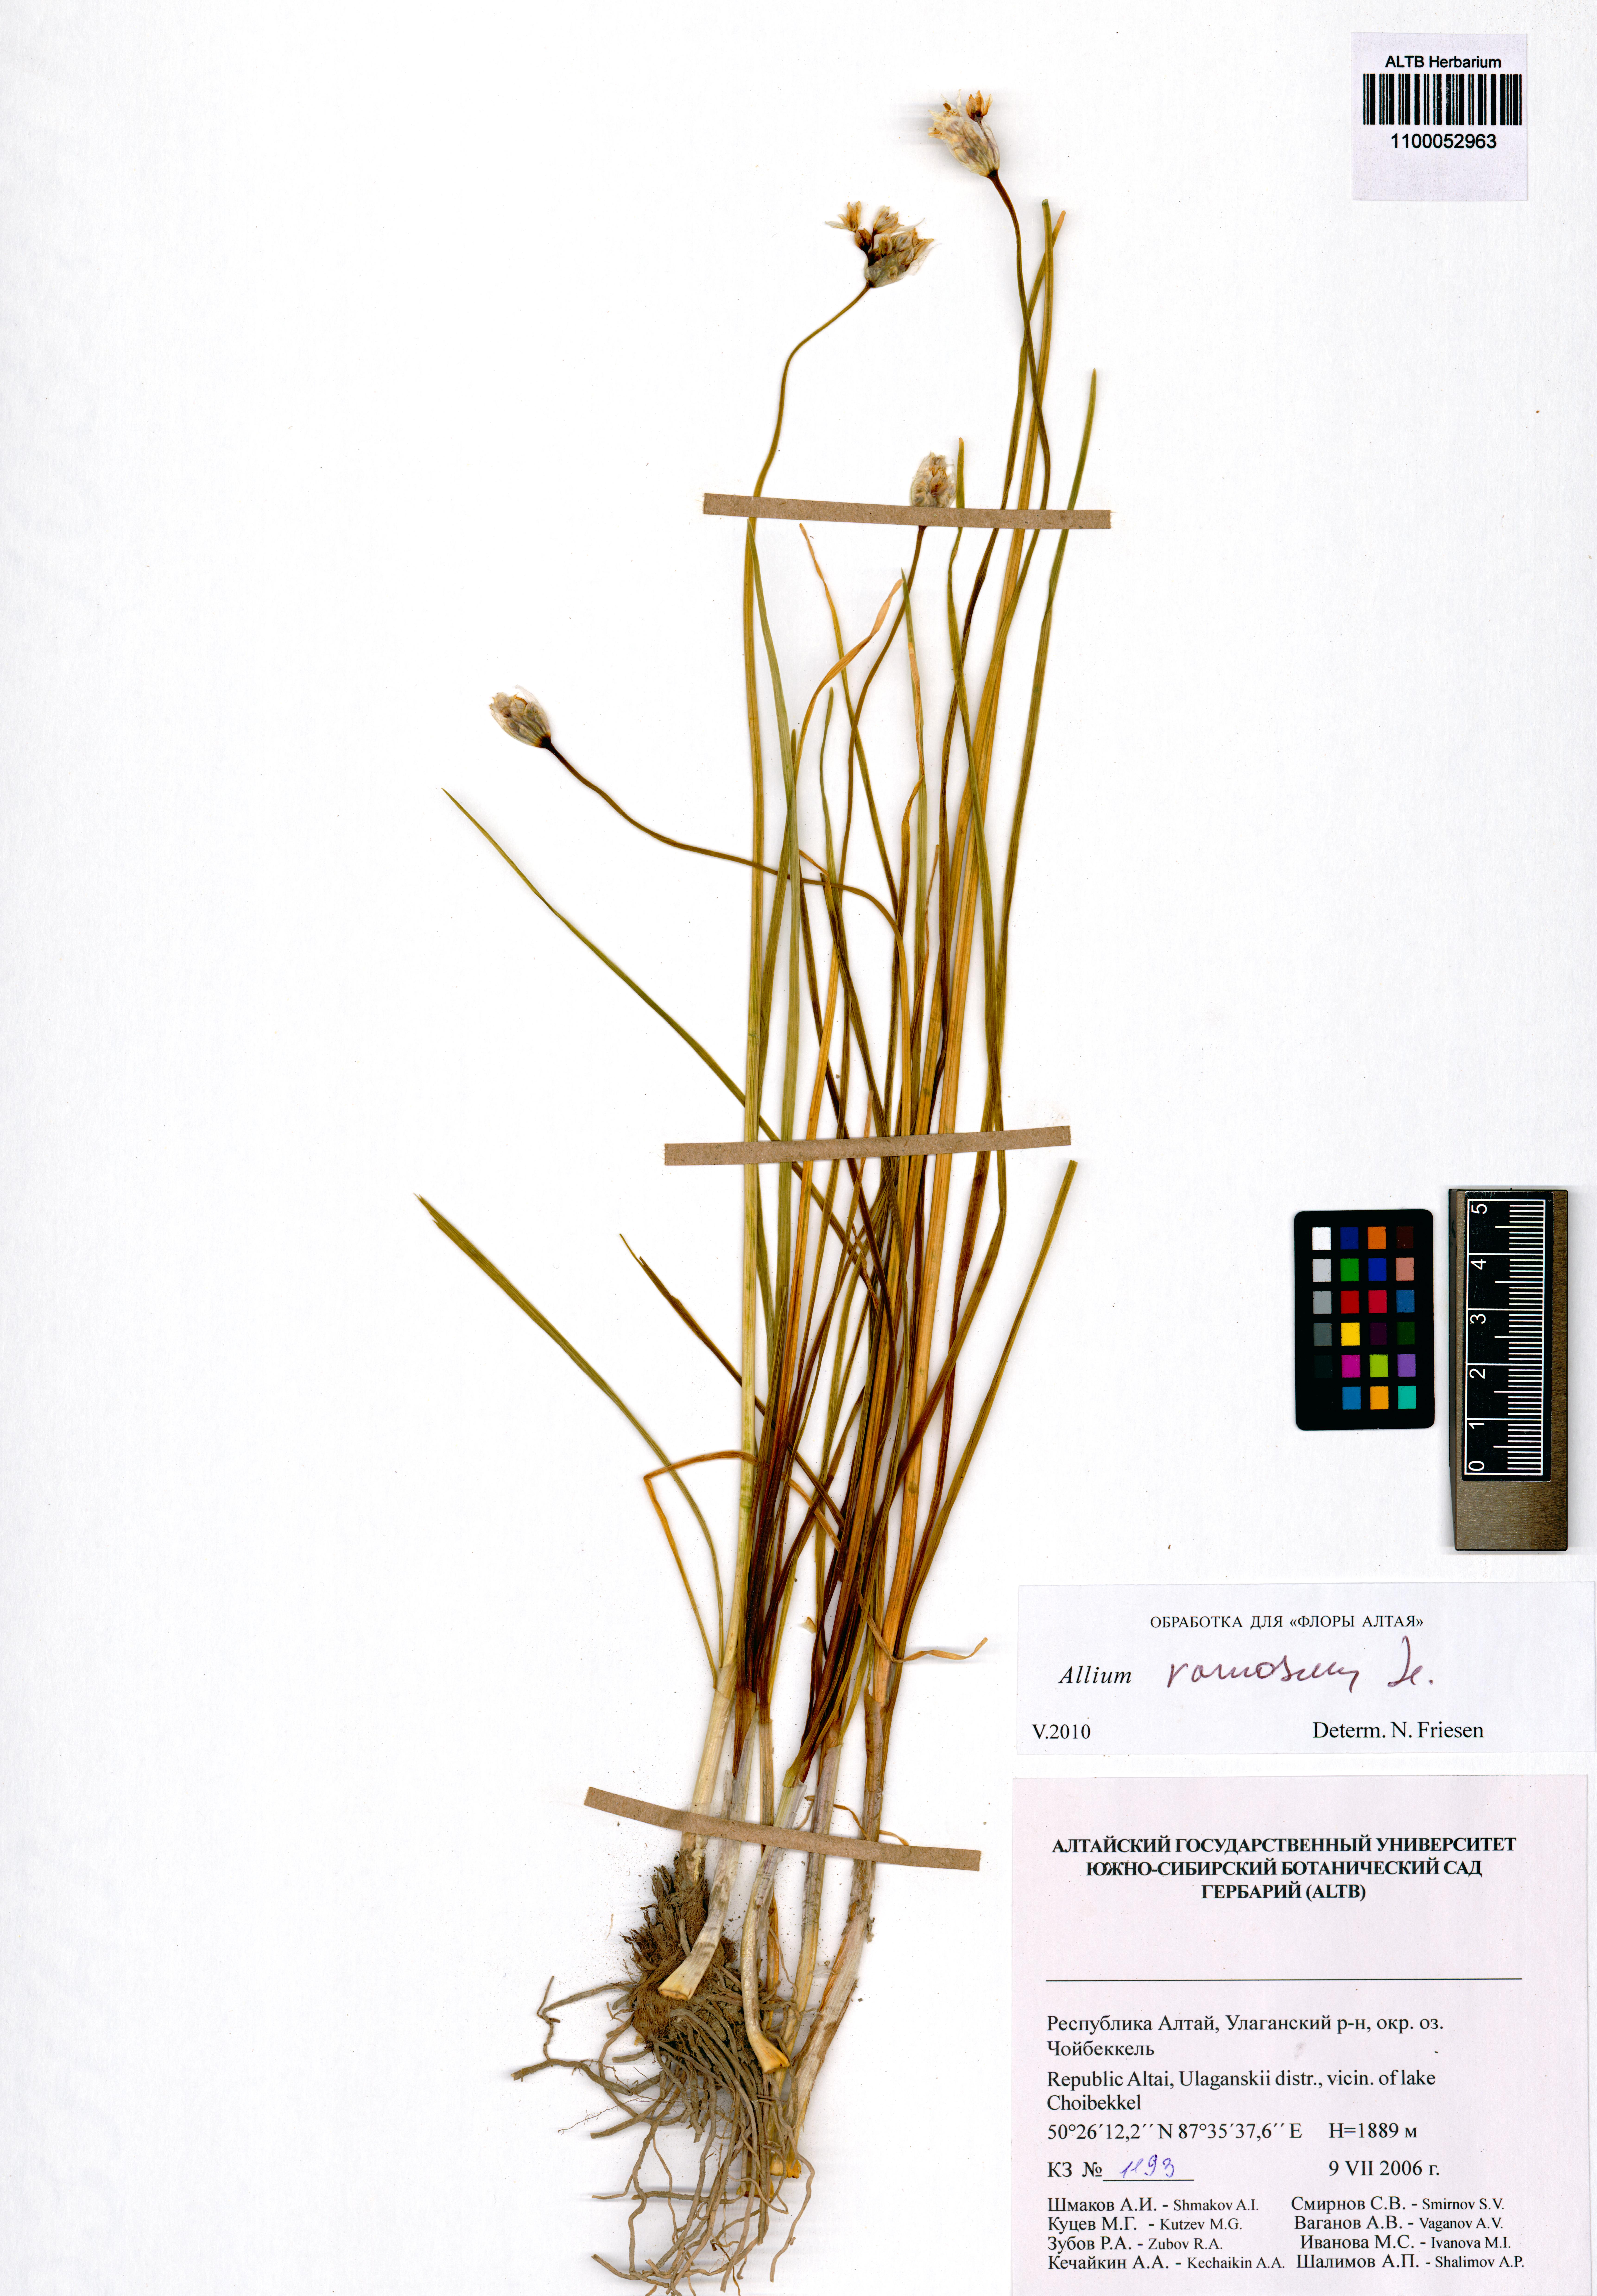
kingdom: Plantae
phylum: Tracheophyta
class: Liliopsida
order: Asparagales
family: Amaryllidaceae
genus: Allium
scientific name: Allium ramosum
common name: Fragrant garlic
